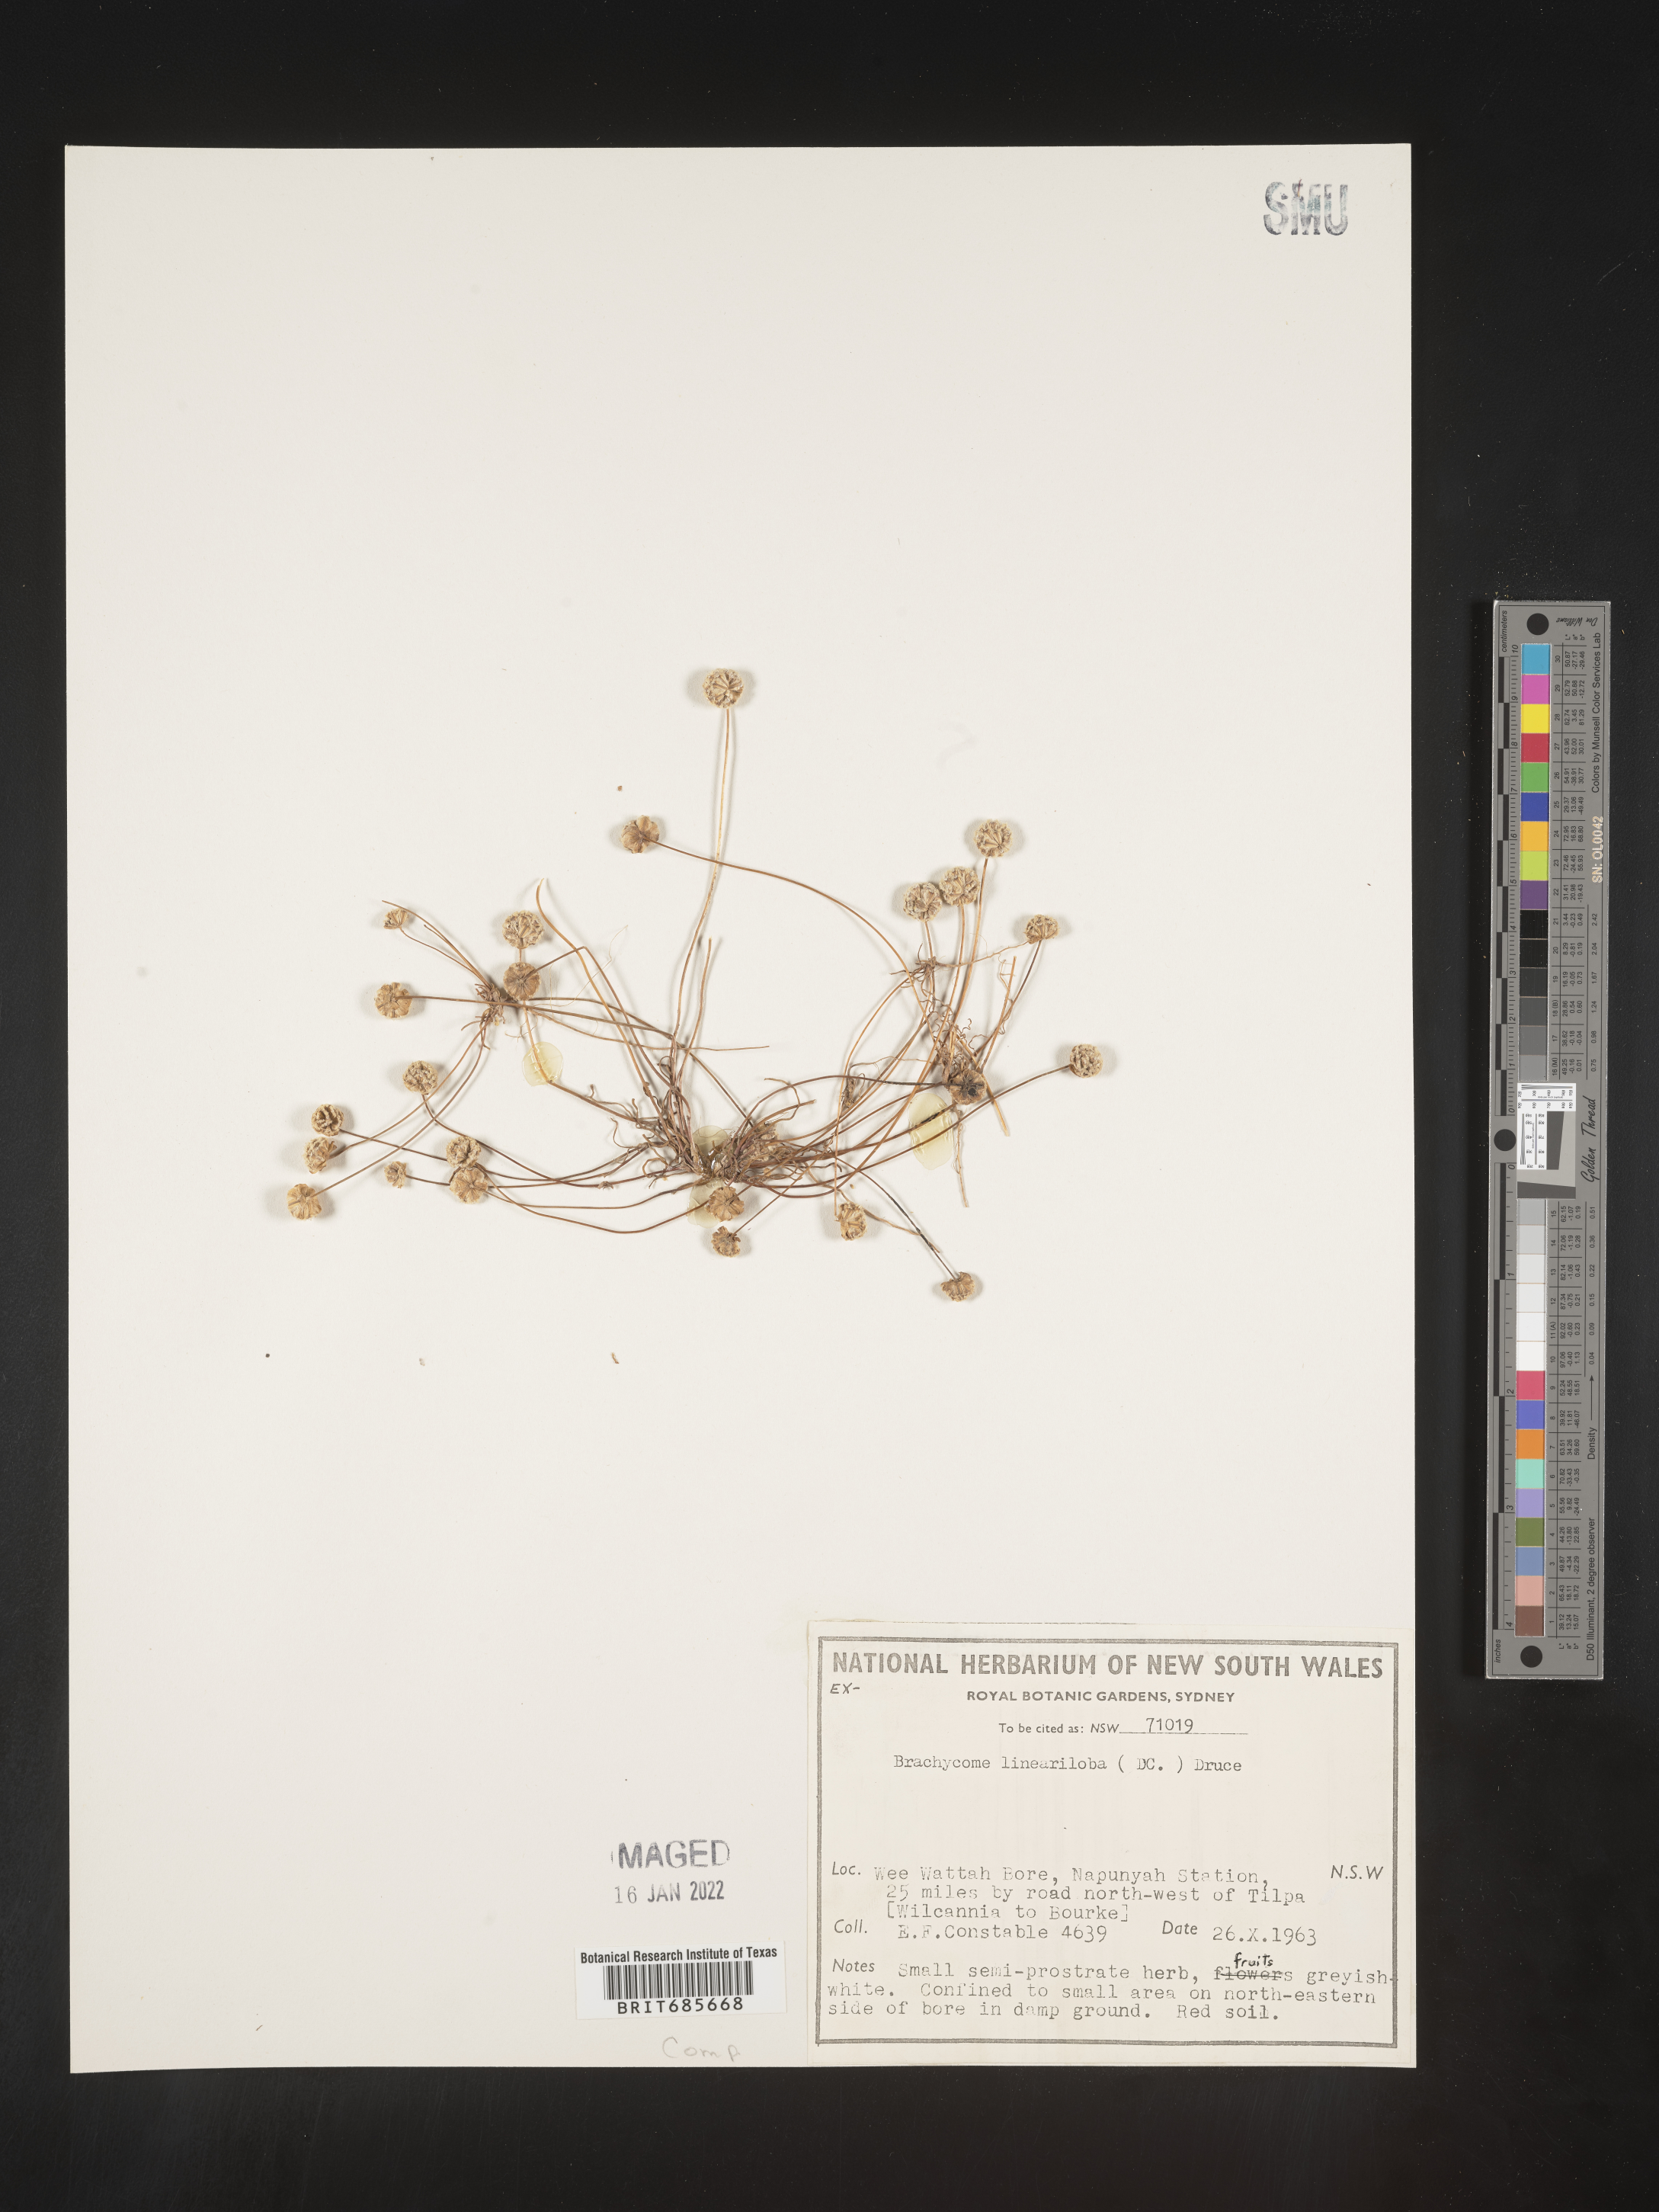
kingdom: Plantae
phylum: Tracheophyta
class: Magnoliopsida
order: Asterales
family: Asteraceae
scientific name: Asteraceae
